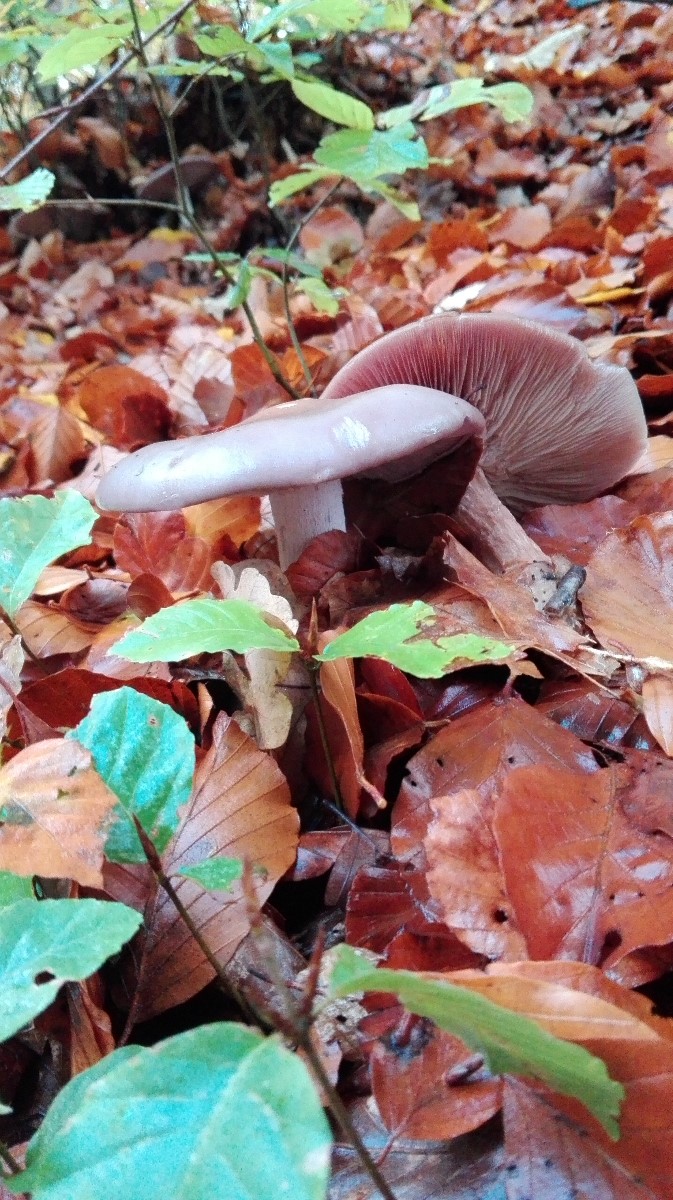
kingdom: Fungi
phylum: Basidiomycota
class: Agaricomycetes
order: Agaricales
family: Tricholomataceae
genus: Lepista
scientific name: Lepista nuda
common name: violet hekseringshat
